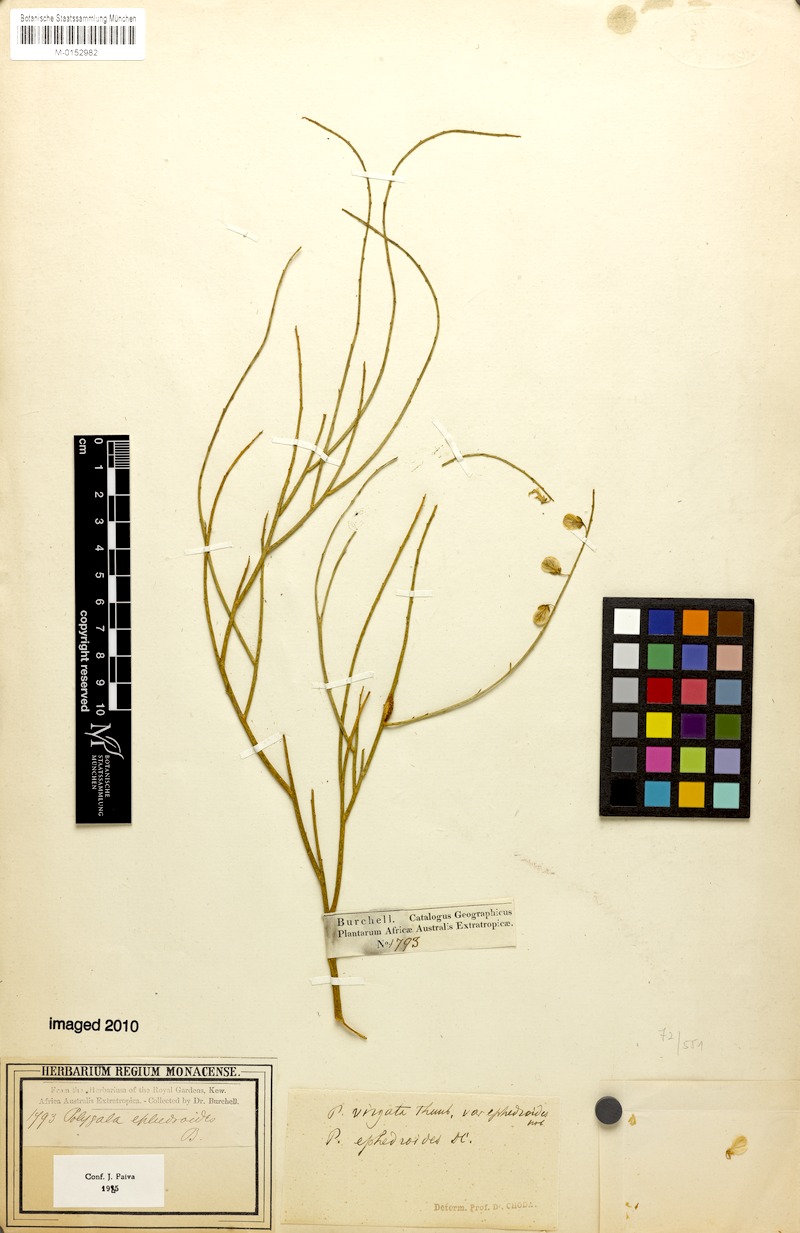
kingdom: Plantae
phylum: Tracheophyta
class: Magnoliopsida
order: Fabales
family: Polygalaceae
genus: Polygala
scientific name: Polygala ephedroides
